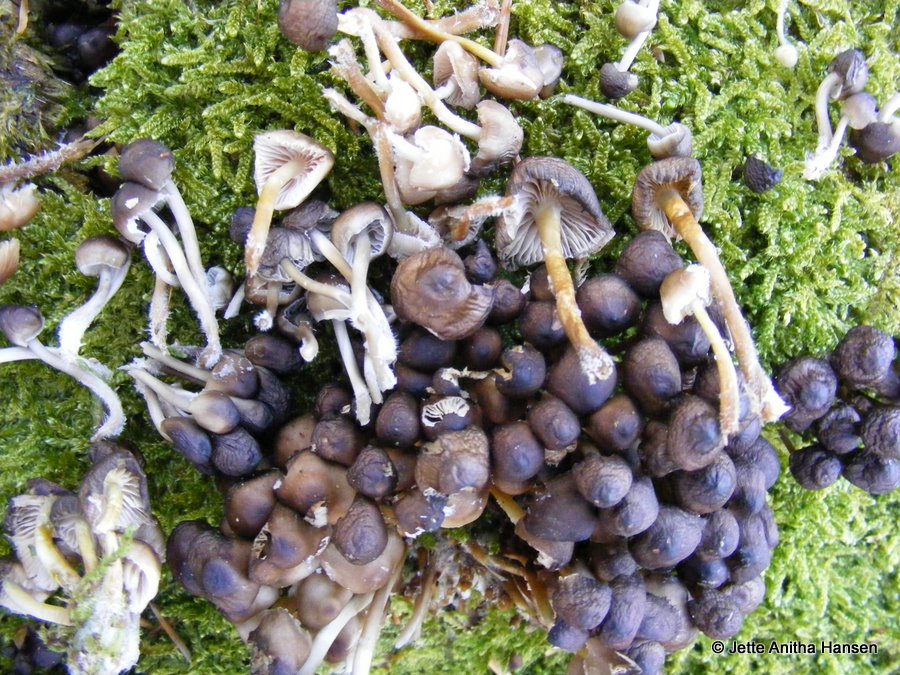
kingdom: Fungi
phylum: Basidiomycota
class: Agaricomycetes
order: Agaricales
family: Mycenaceae
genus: Mycena
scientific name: Mycena tintinnabulum
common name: vinter-huesvamp
